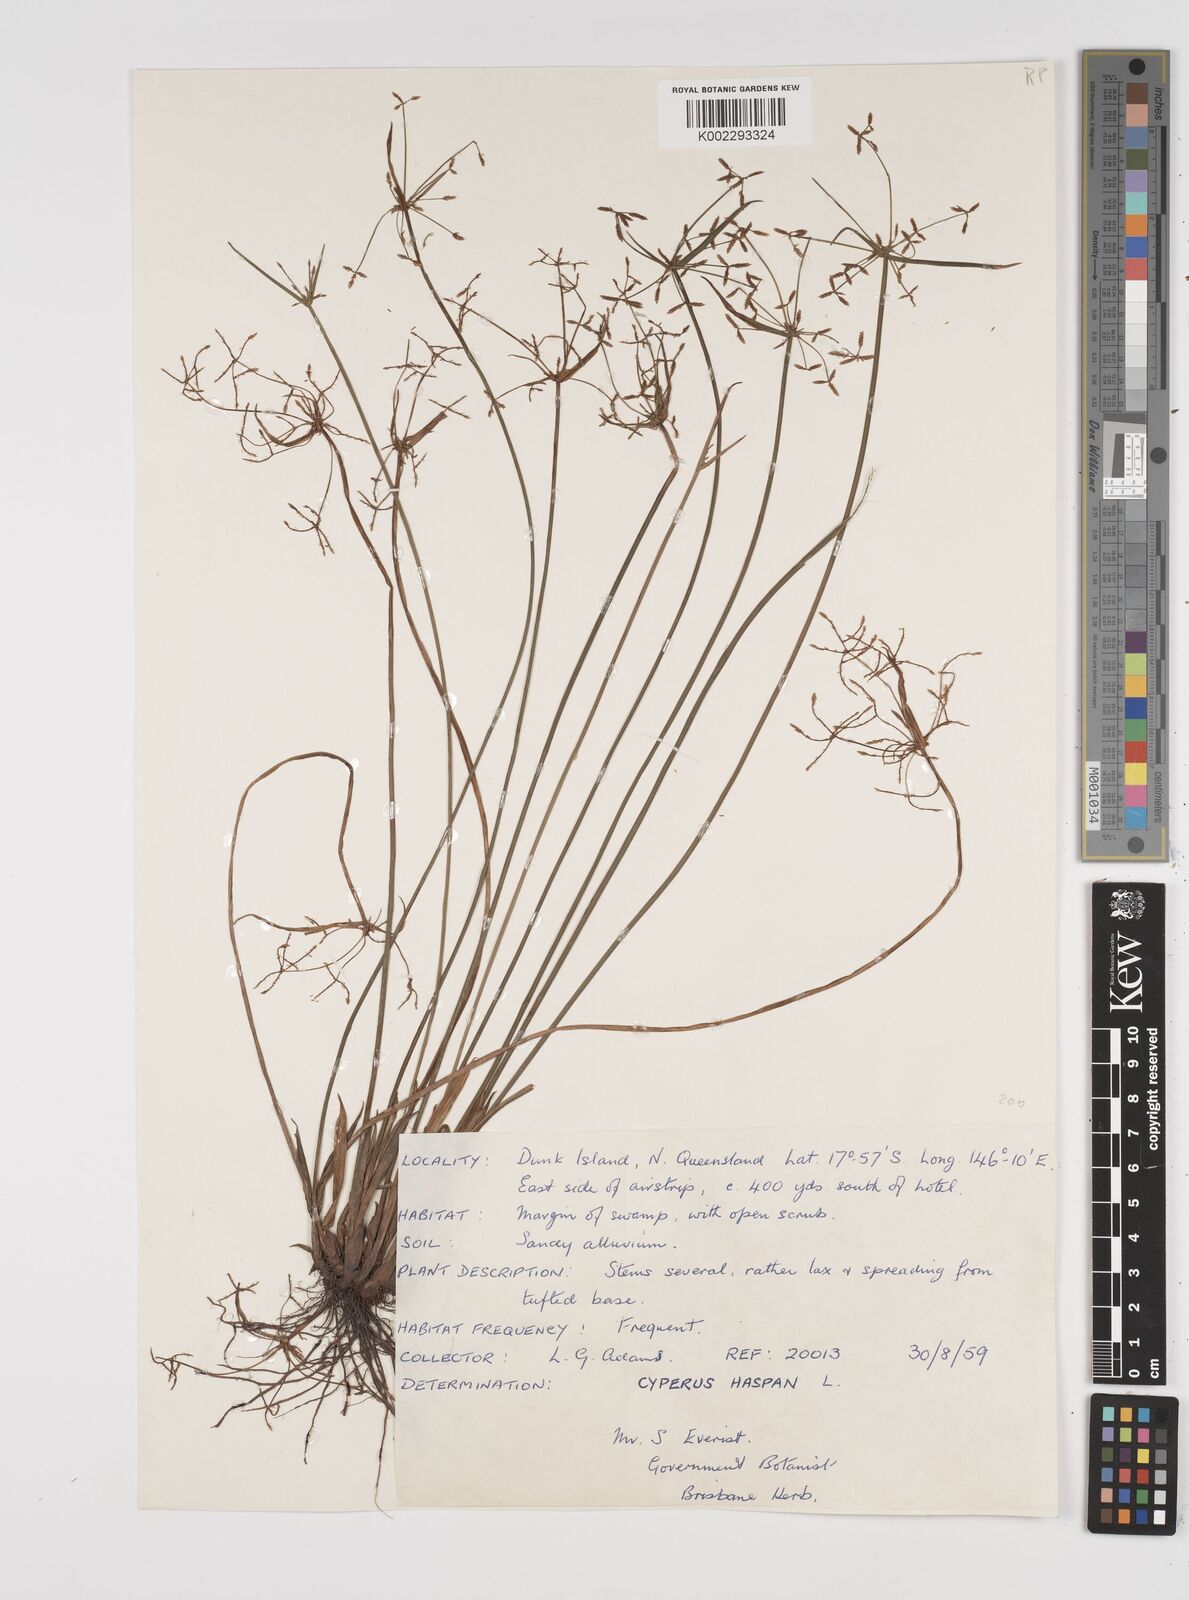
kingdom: Plantae
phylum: Tracheophyta
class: Liliopsida
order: Poales
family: Cyperaceae
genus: Cyperus
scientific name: Cyperus haspan
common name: Haspan flatsedge
